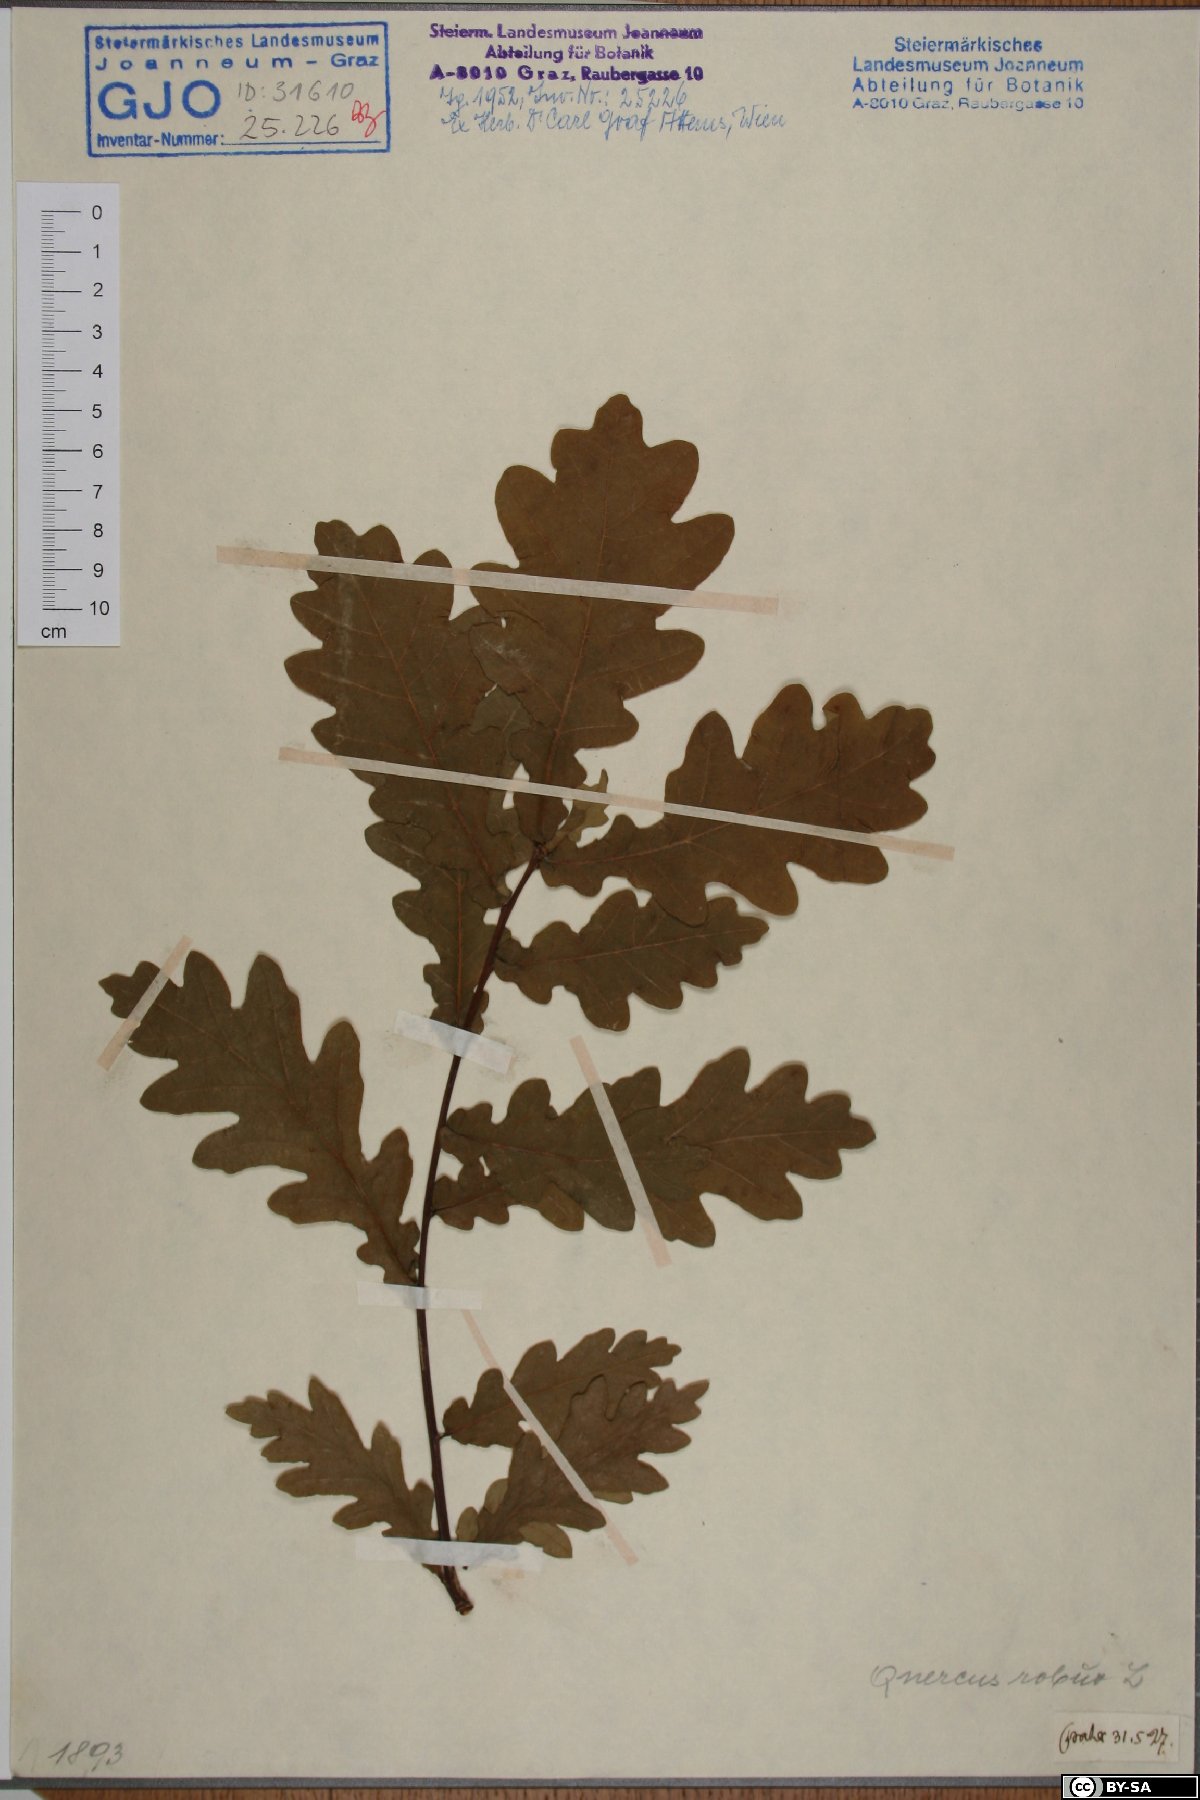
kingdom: Plantae
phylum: Tracheophyta
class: Magnoliopsida
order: Fagales
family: Fagaceae
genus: Quercus
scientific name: Quercus robur
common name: Pedunculate oak
